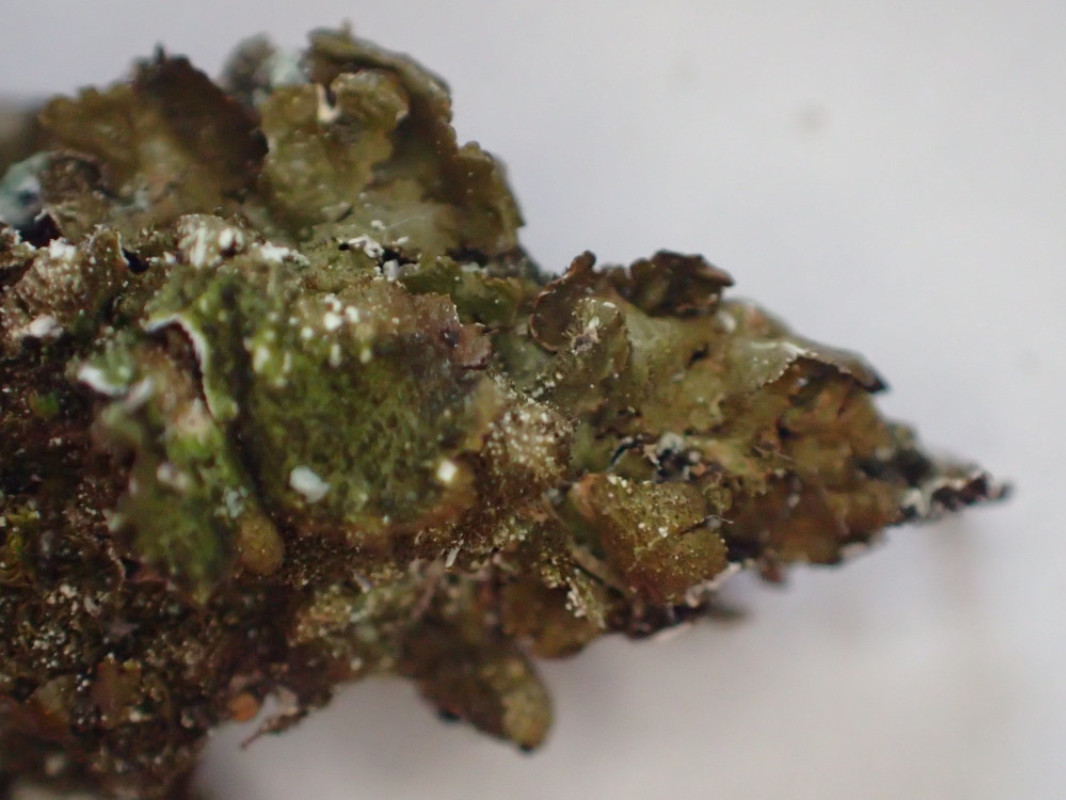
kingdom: Fungi
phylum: Ascomycota
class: Lecanoromycetes
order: Lecanorales
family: Parmeliaceae
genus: Melanelixia
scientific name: Melanelixia subaurifera
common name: guldpudret skållav
